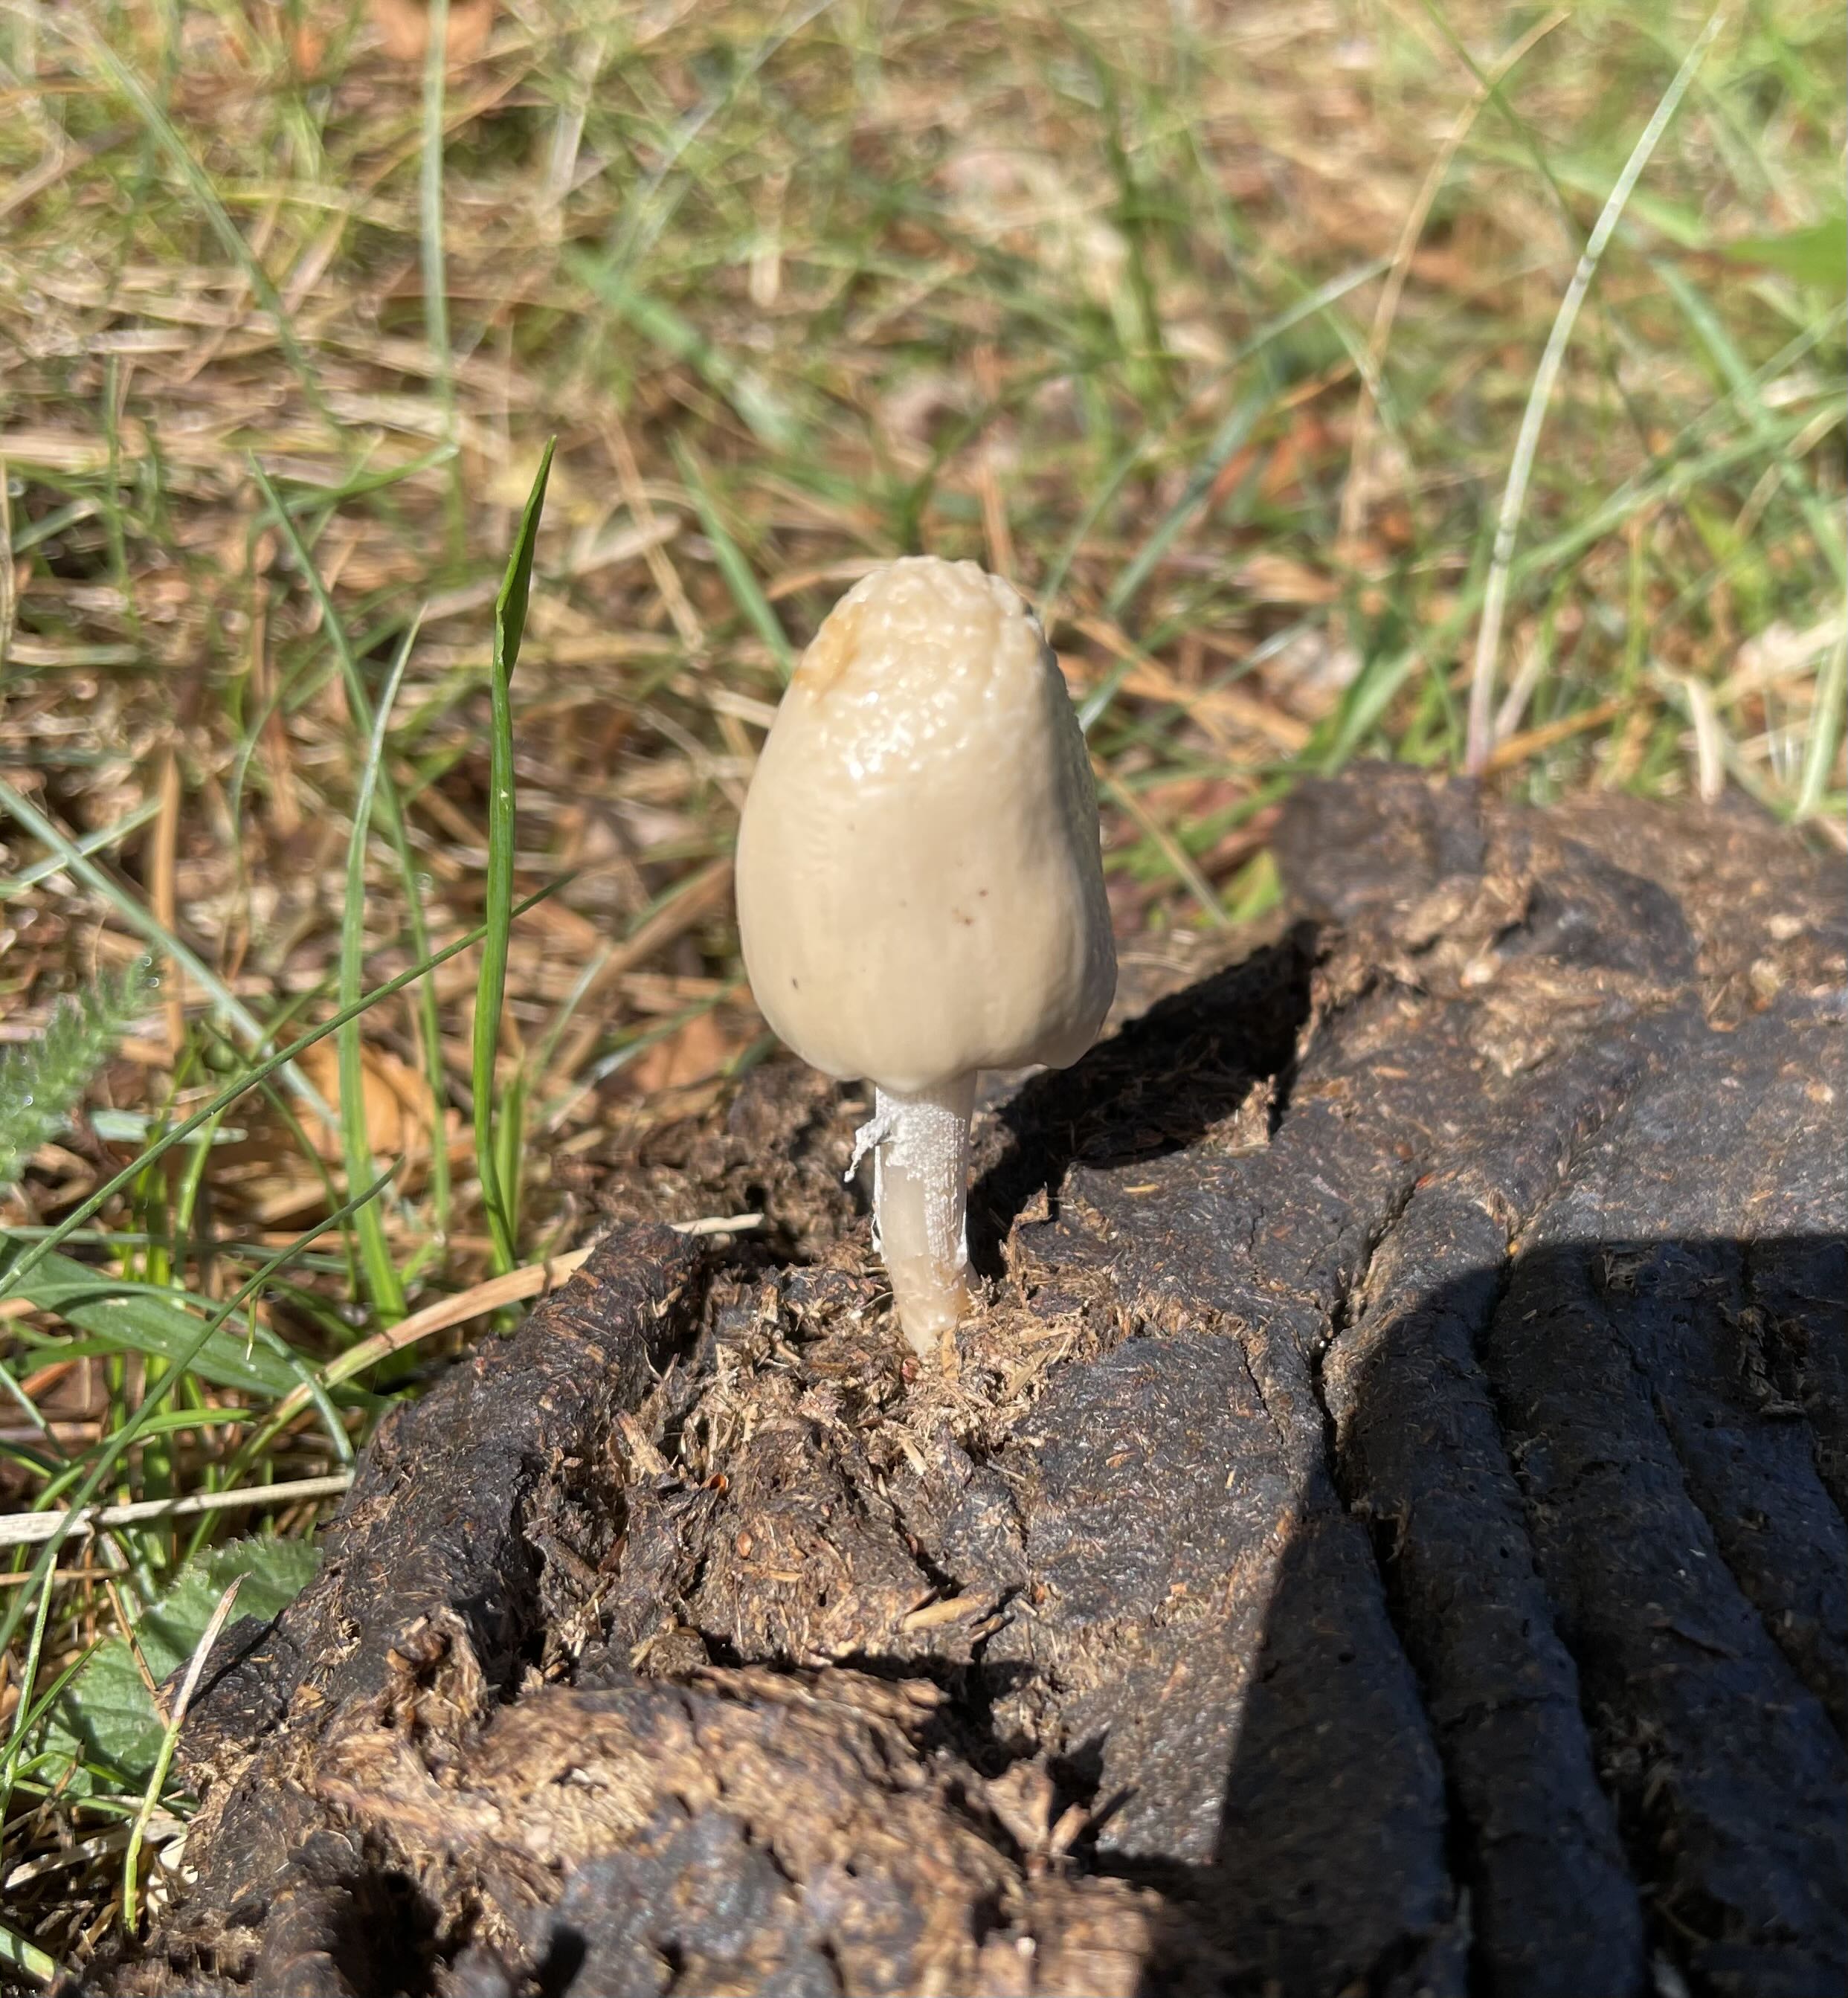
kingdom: Fungi
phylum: Basidiomycota
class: Agaricomycetes
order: Agaricales
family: Bolbitiaceae
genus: Panaeolus
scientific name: Panaeolus semiovatus
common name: ring-glanshat
